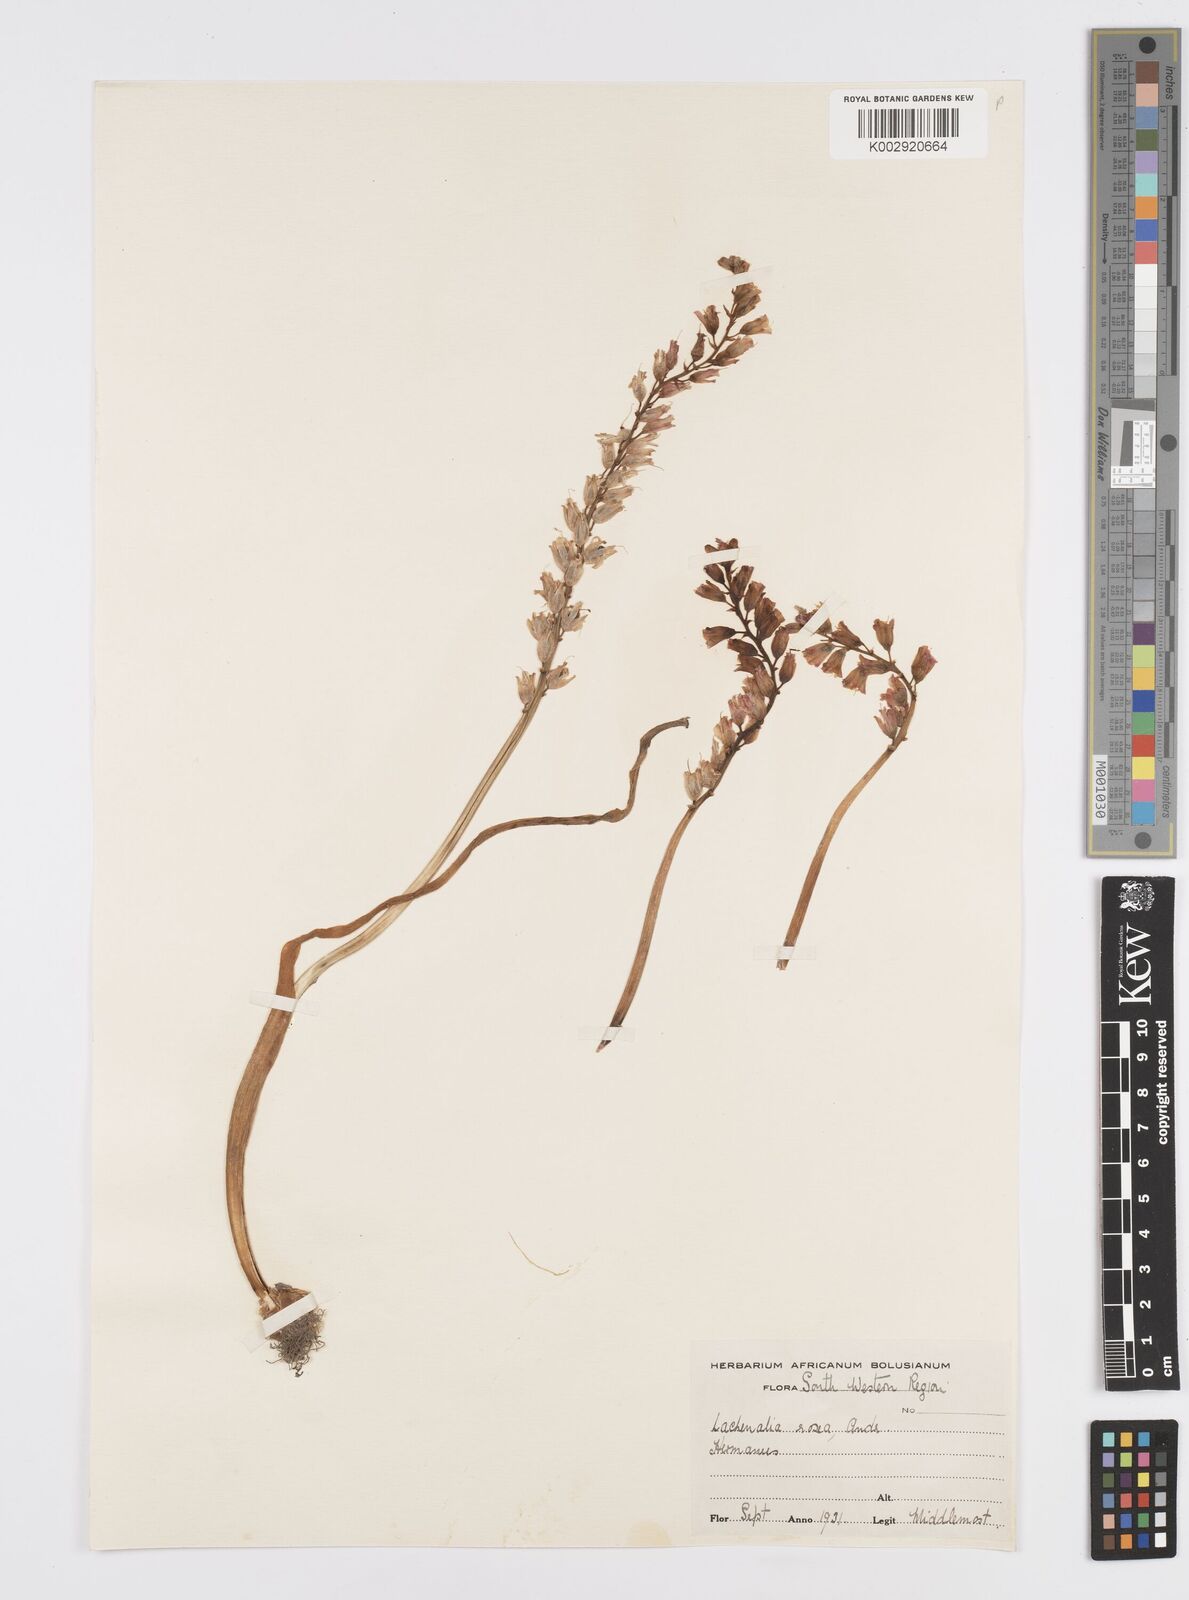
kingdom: Plantae
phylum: Tracheophyta
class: Liliopsida
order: Asparagales
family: Asparagaceae
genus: Lachenalia
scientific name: Lachenalia rosea
